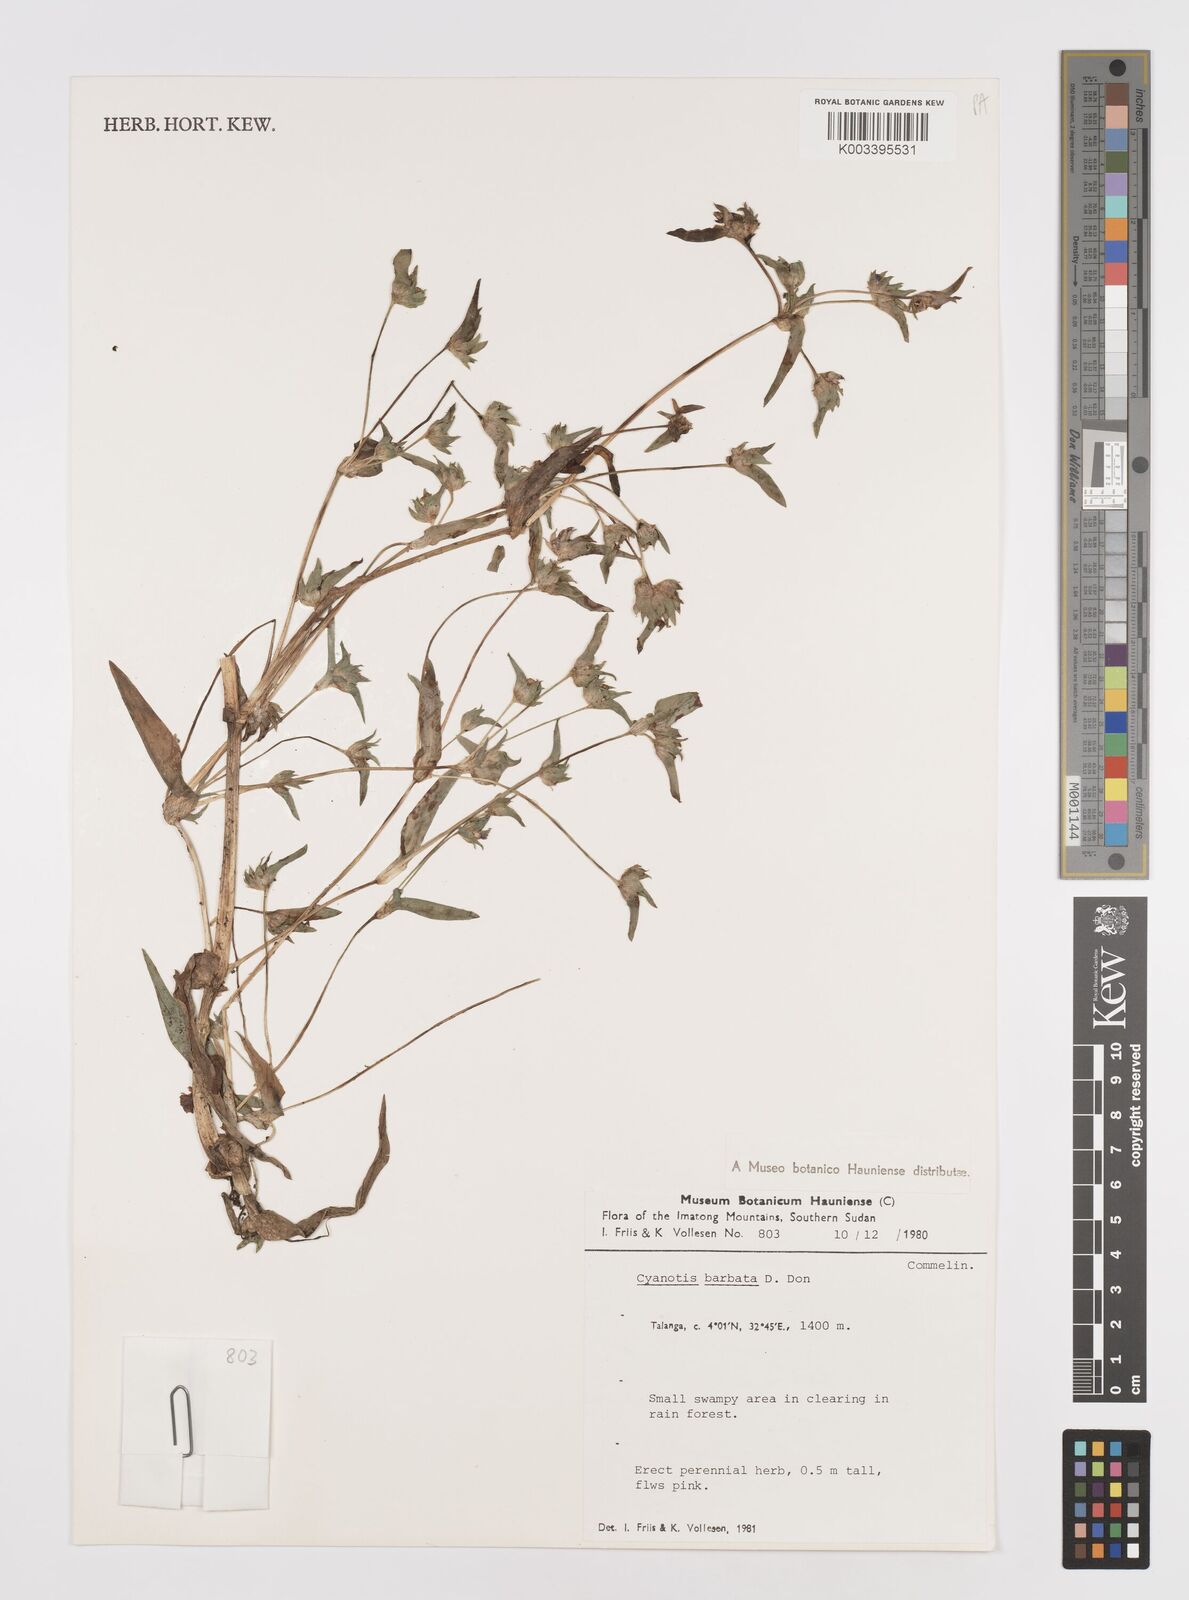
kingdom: Plantae
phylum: Tracheophyta
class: Liliopsida
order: Commelinales
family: Commelinaceae
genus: Cyanotis
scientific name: Cyanotis vaga
